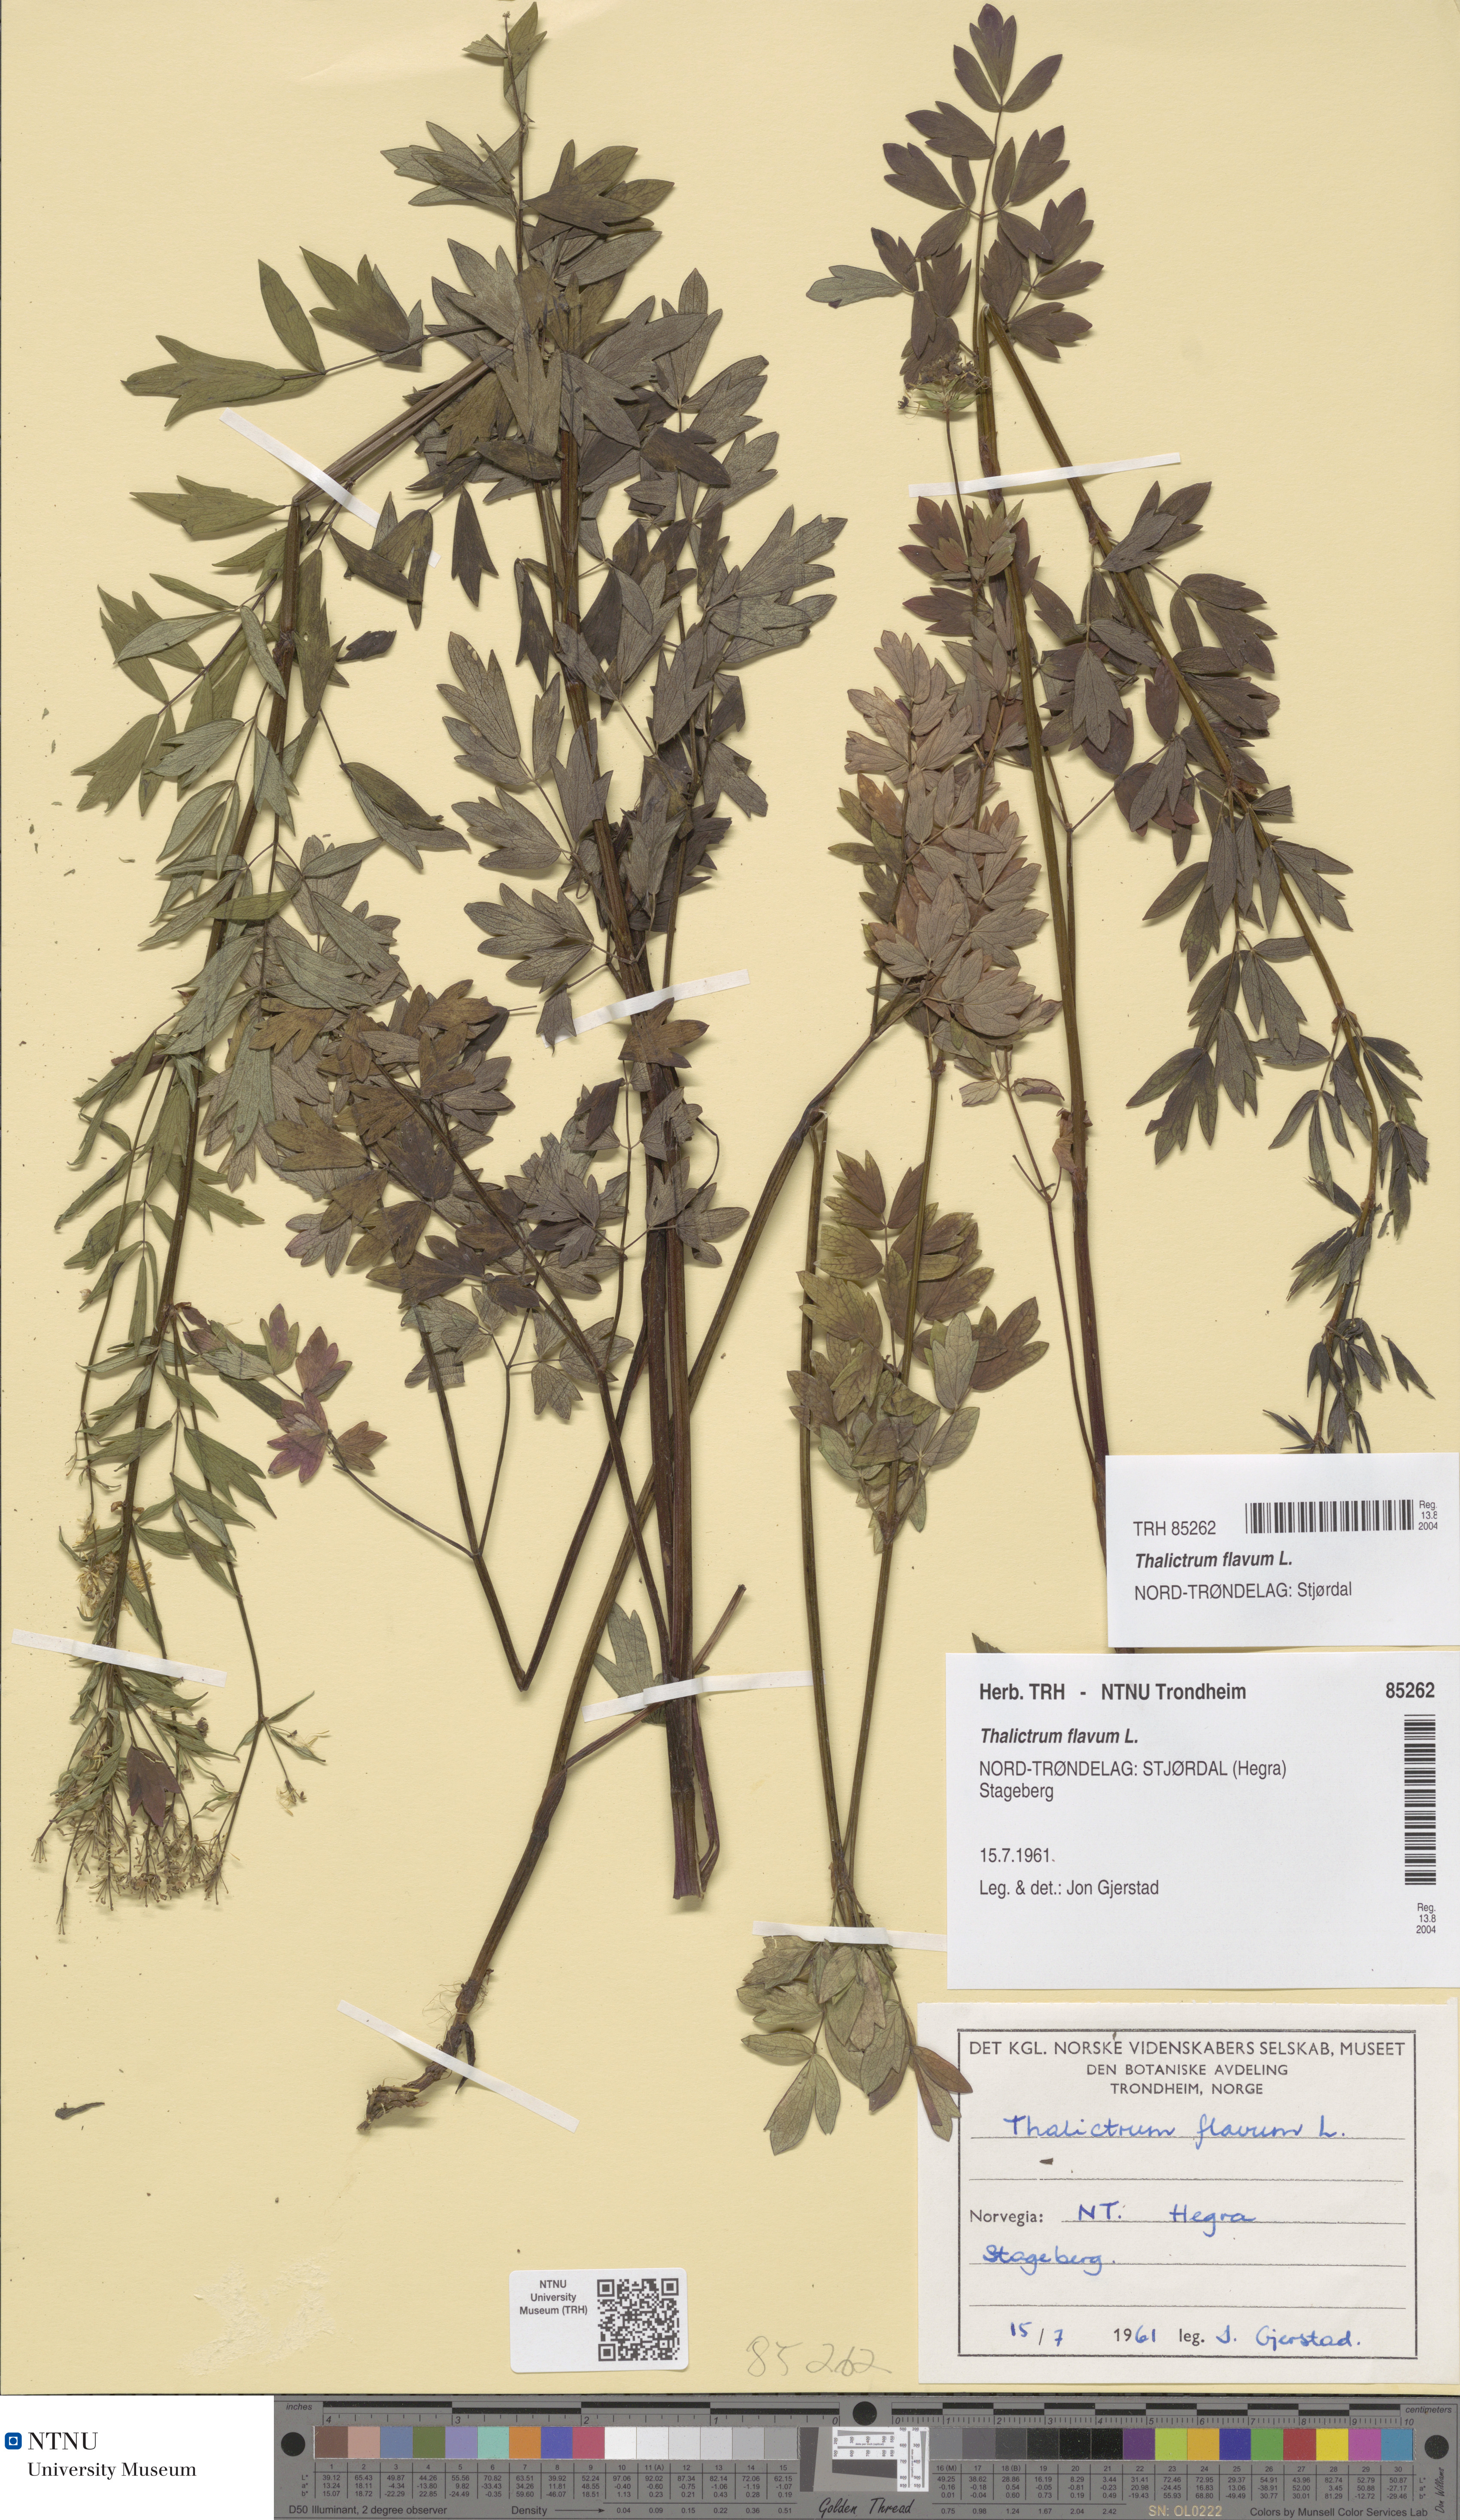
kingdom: Plantae
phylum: Tracheophyta
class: Magnoliopsida
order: Ranunculales
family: Ranunculaceae
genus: Thalictrum
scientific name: Thalictrum flavum
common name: Common meadow-rue
